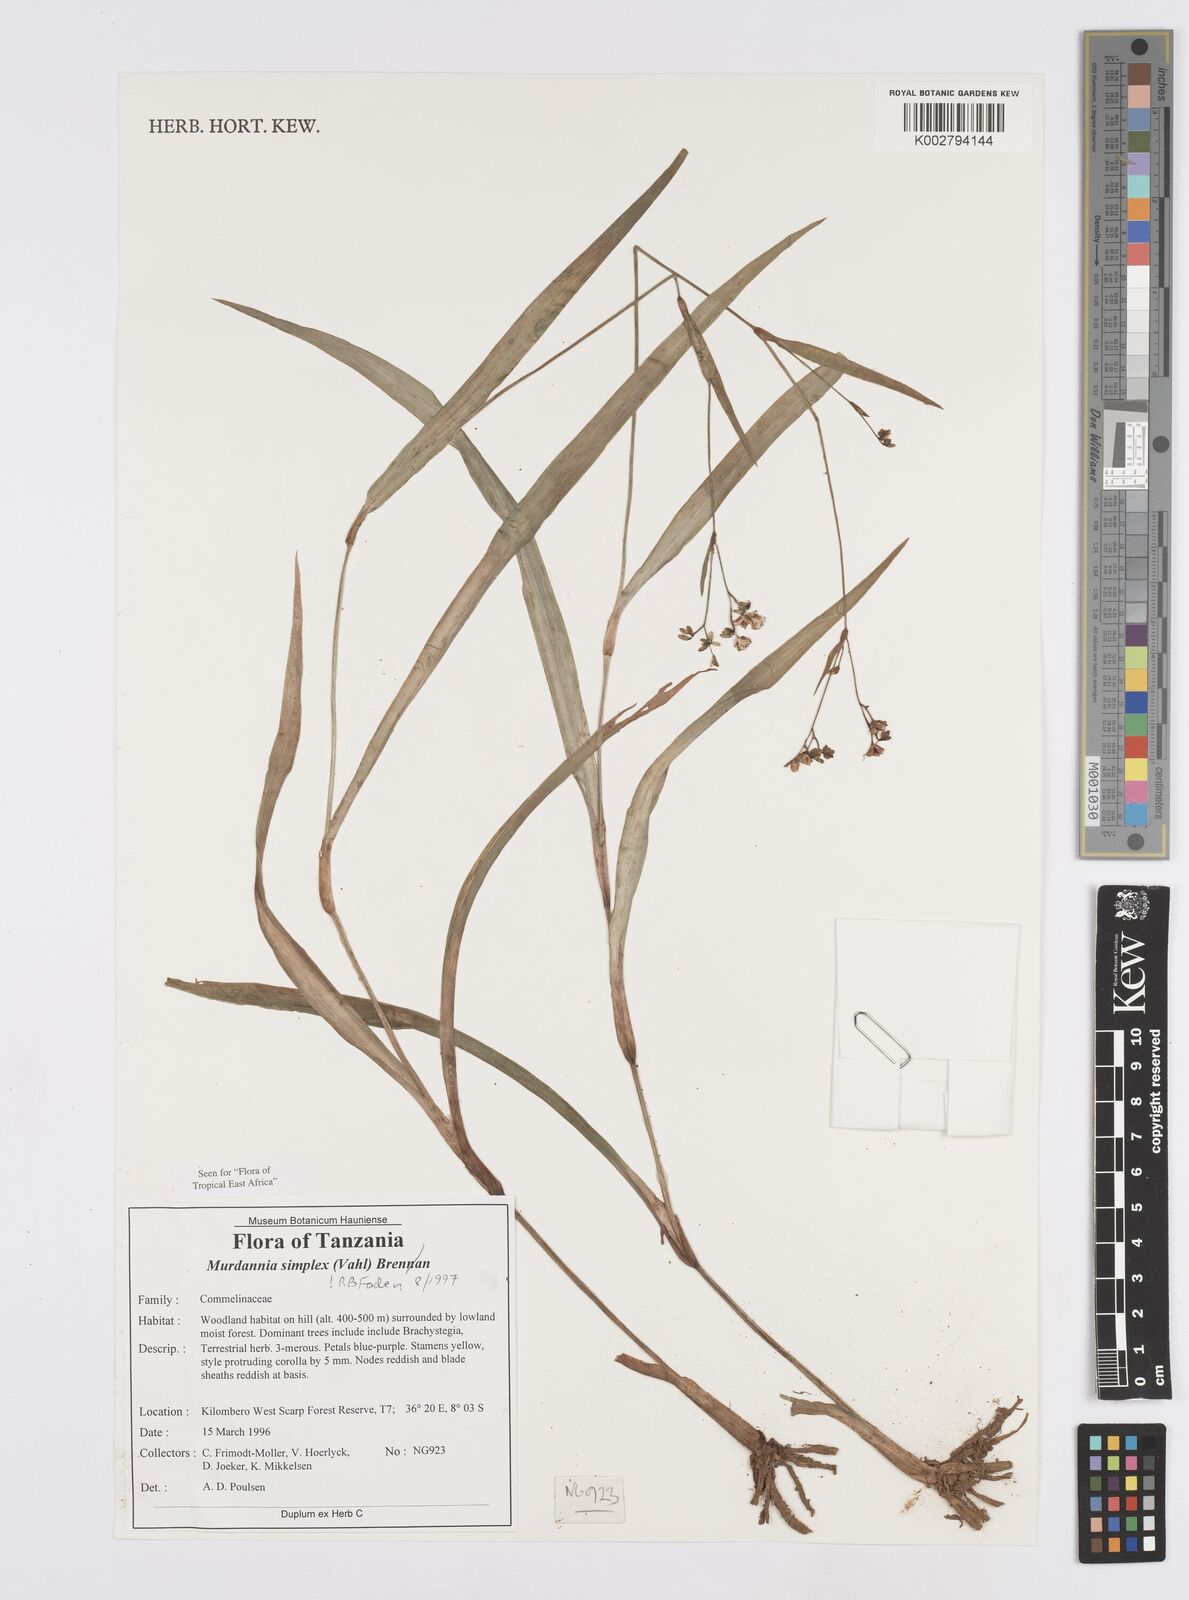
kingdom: Plantae
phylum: Tracheophyta
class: Liliopsida
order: Commelinales
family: Commelinaceae
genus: Murdannia
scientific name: Murdannia simplex
